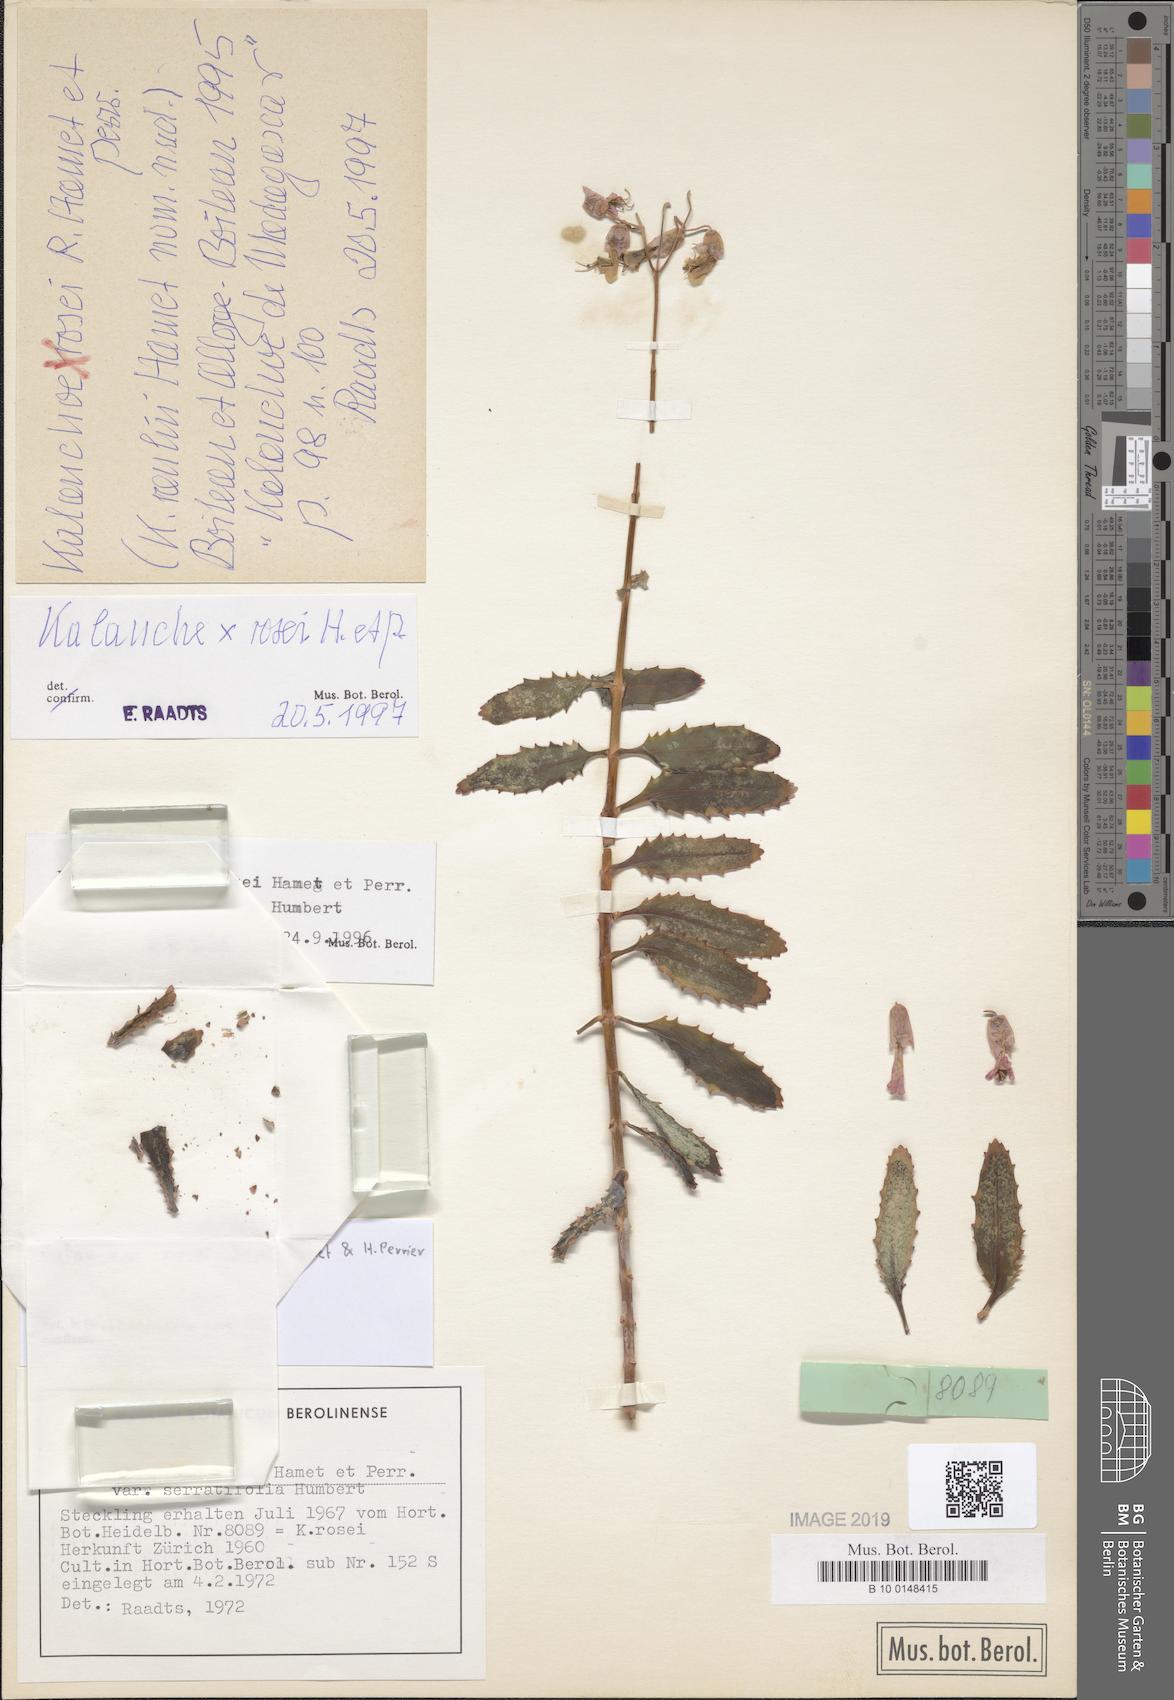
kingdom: Plantae
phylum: Tracheophyta
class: Magnoliopsida
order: Saxifragales
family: Crassulaceae
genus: Kalanchoe
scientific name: Kalanchoe rosei
